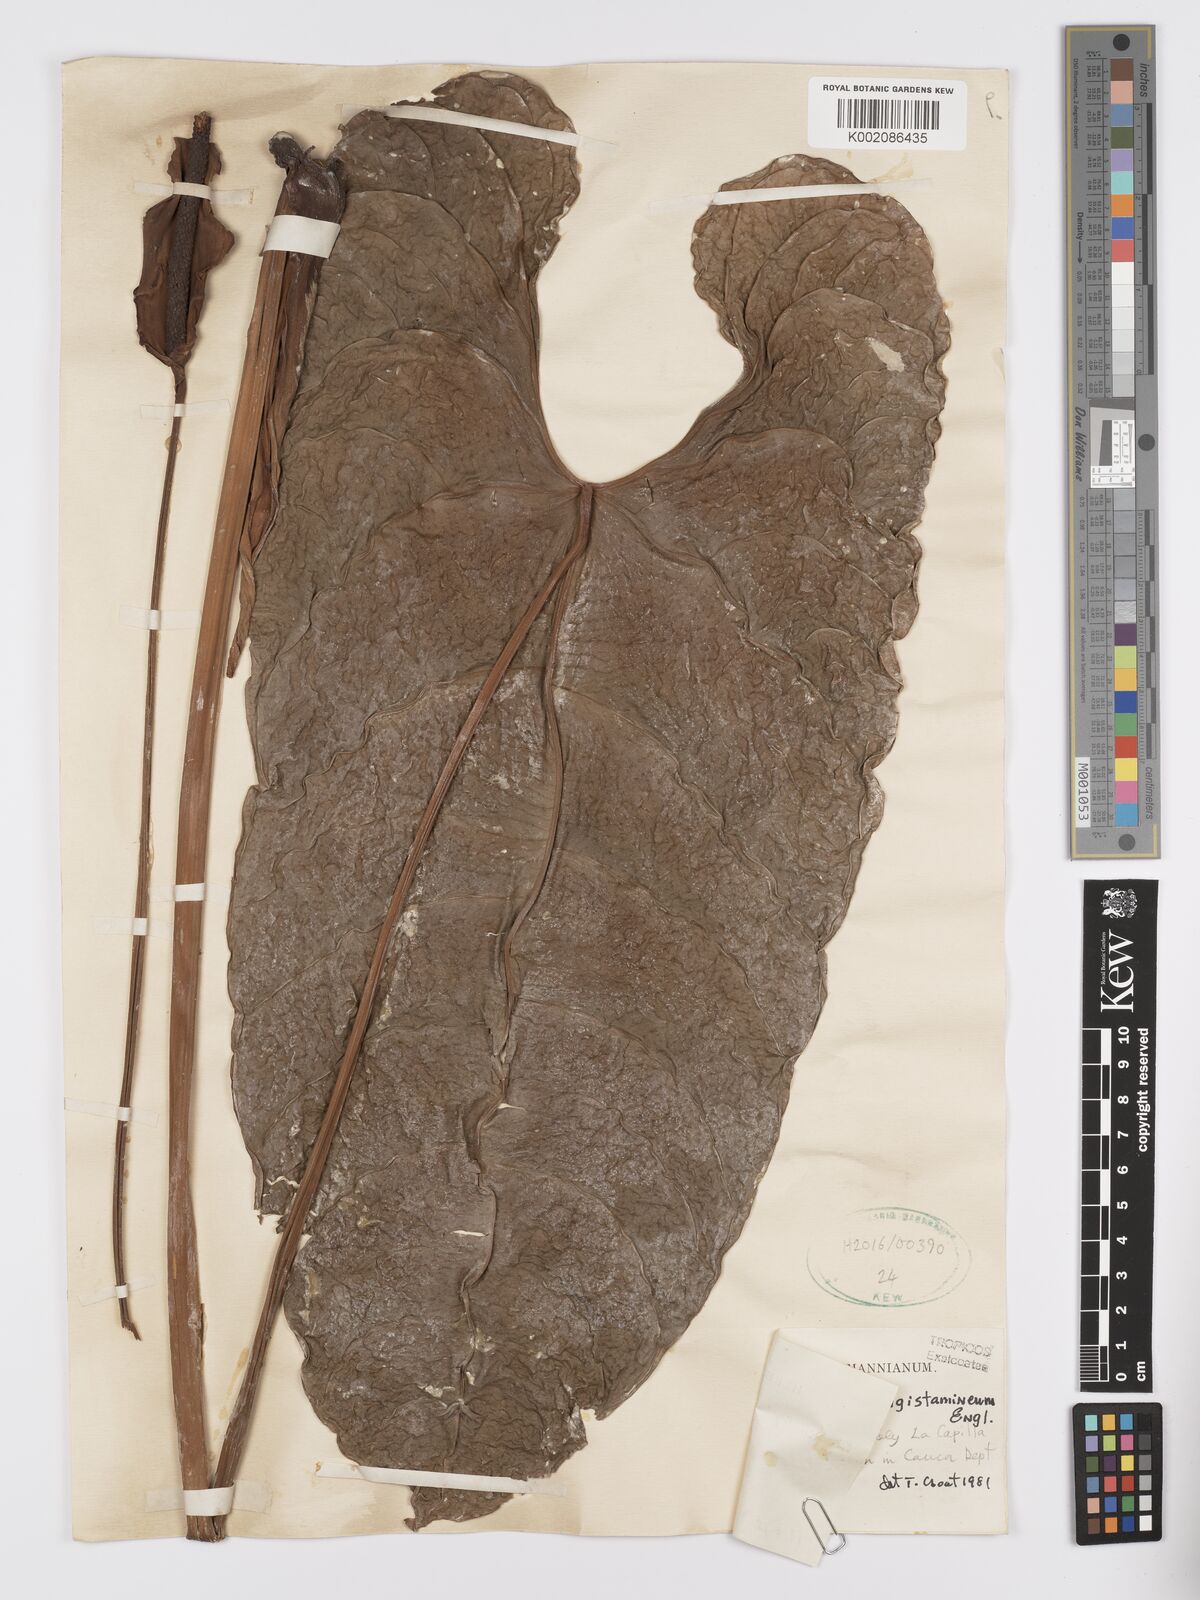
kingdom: Plantae
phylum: Tracheophyta
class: Liliopsida
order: Alismatales
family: Araceae
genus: Anthurium
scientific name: Anthurium longistamineum
